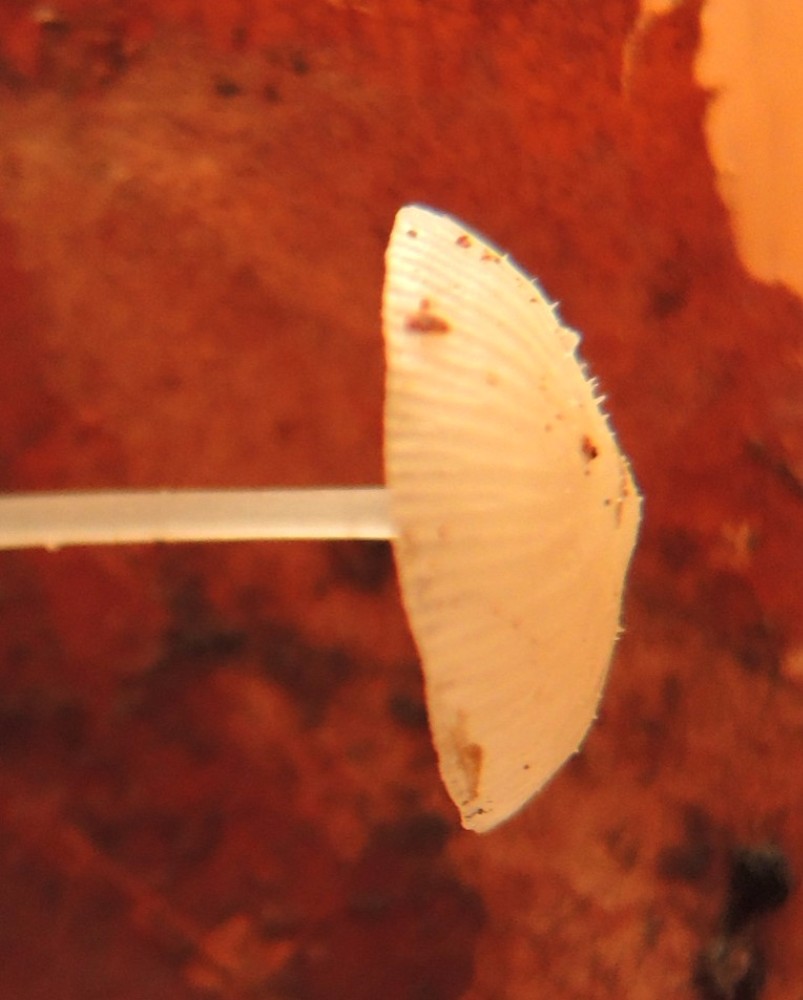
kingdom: Fungi
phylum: Basidiomycota
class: Agaricomycetes
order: Agaricales
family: Mycenaceae
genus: Mycena
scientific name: Mycena stylobates
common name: fureskivet huesvamp
